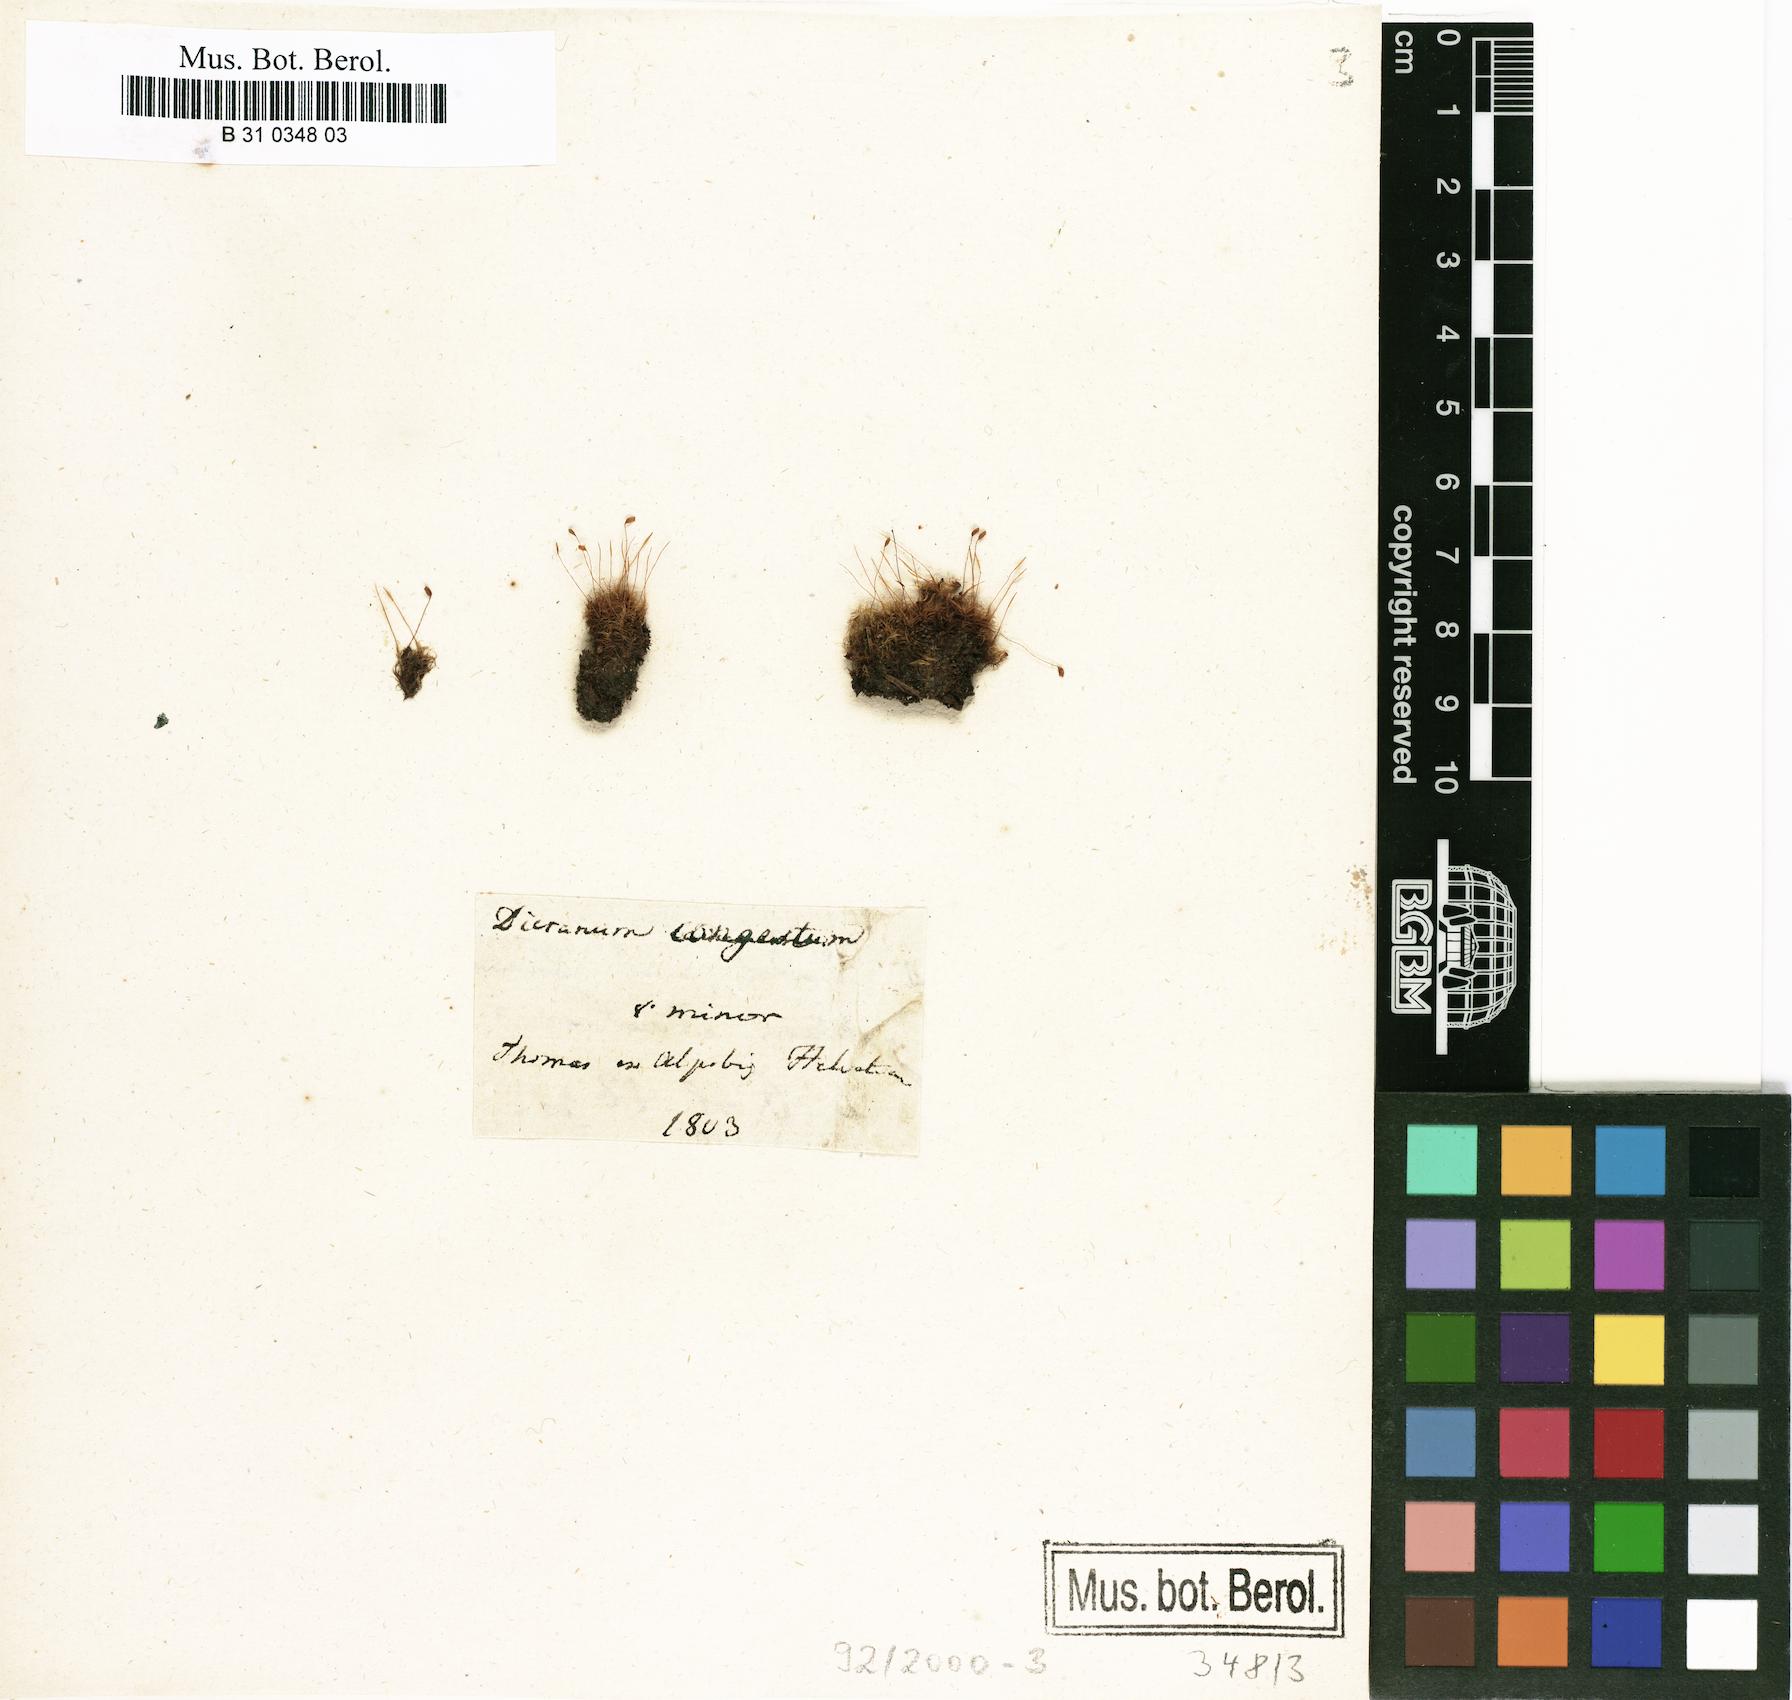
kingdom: Plantae
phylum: Bryophyta
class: Bryopsida
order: Dicranales
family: Dicranaceae
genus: Dicranum
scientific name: Dicranum fuscescens
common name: Curly heron's-bill moss
